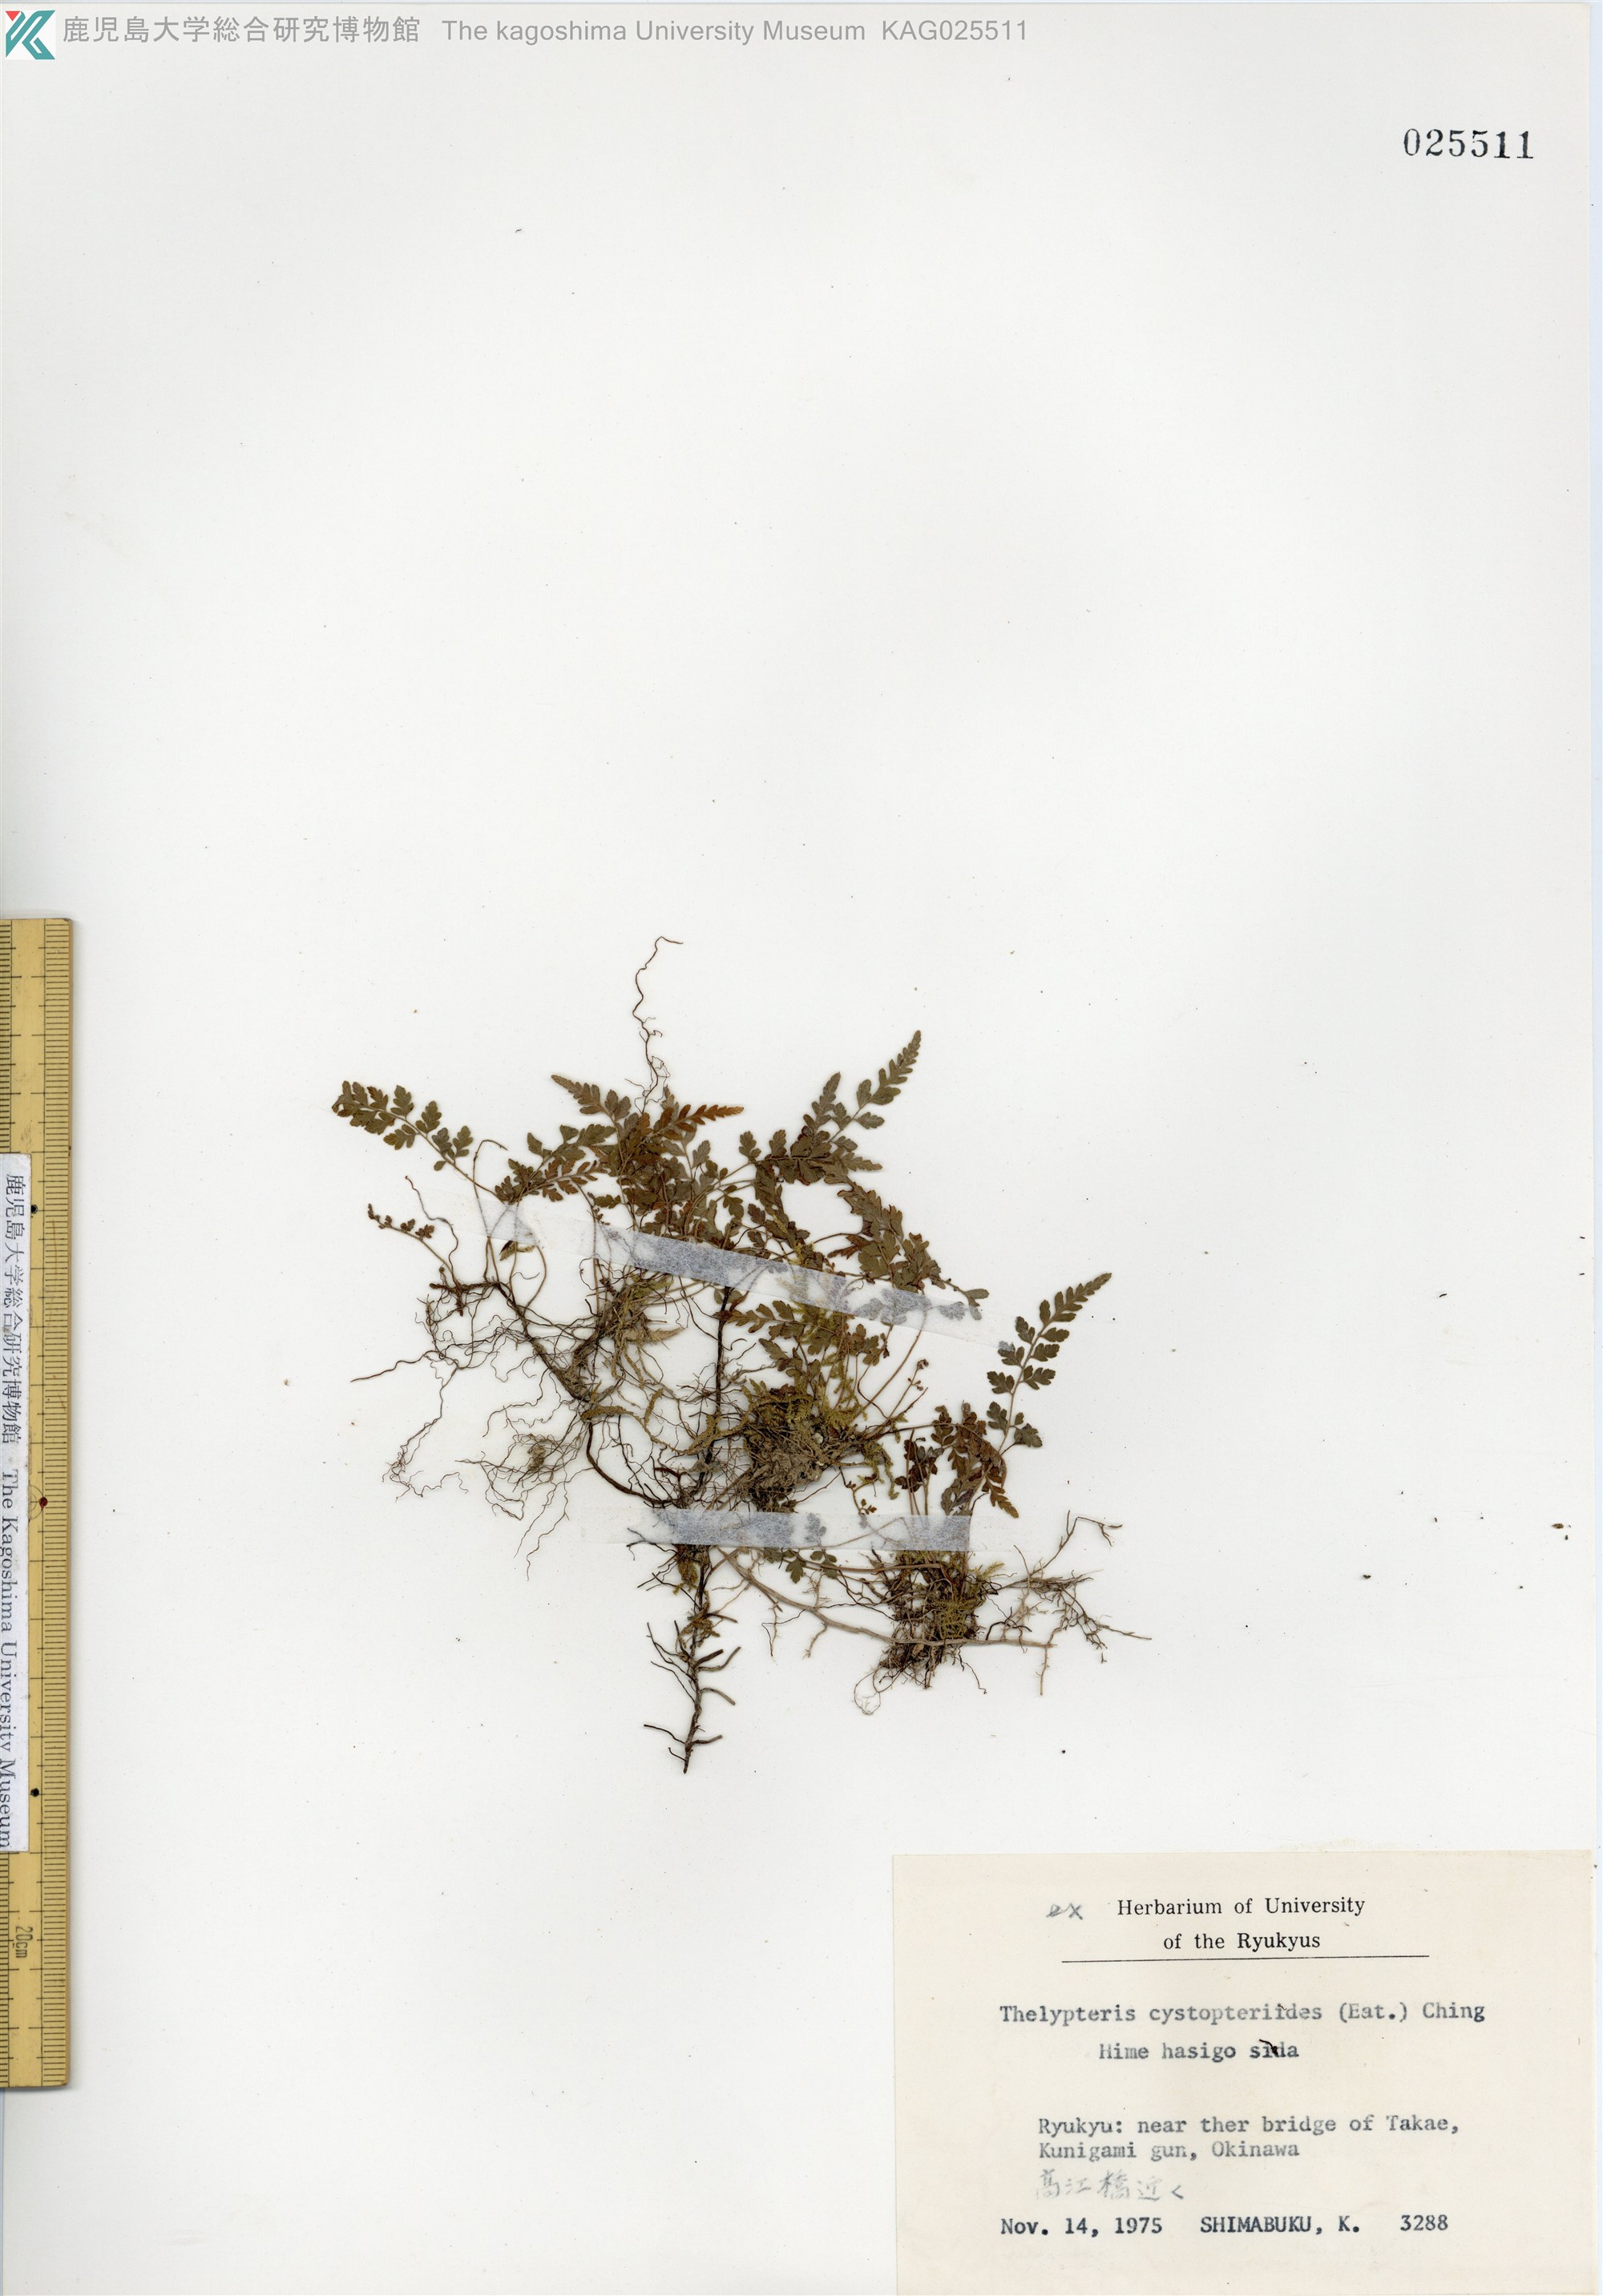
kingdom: Plantae
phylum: Tracheophyta
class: Polypodiopsida
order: Polypodiales
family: Thelypteridaceae
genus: Amauropelta
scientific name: Amauropelta cystopteroides
